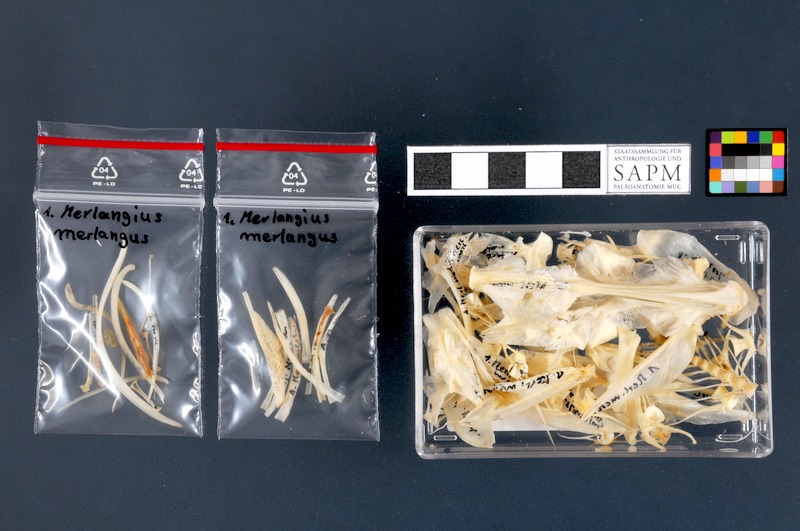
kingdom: Animalia
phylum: Chordata
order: Gadiformes
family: Gadidae
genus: Merlangius
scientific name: Merlangius merlangus
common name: Whiting
